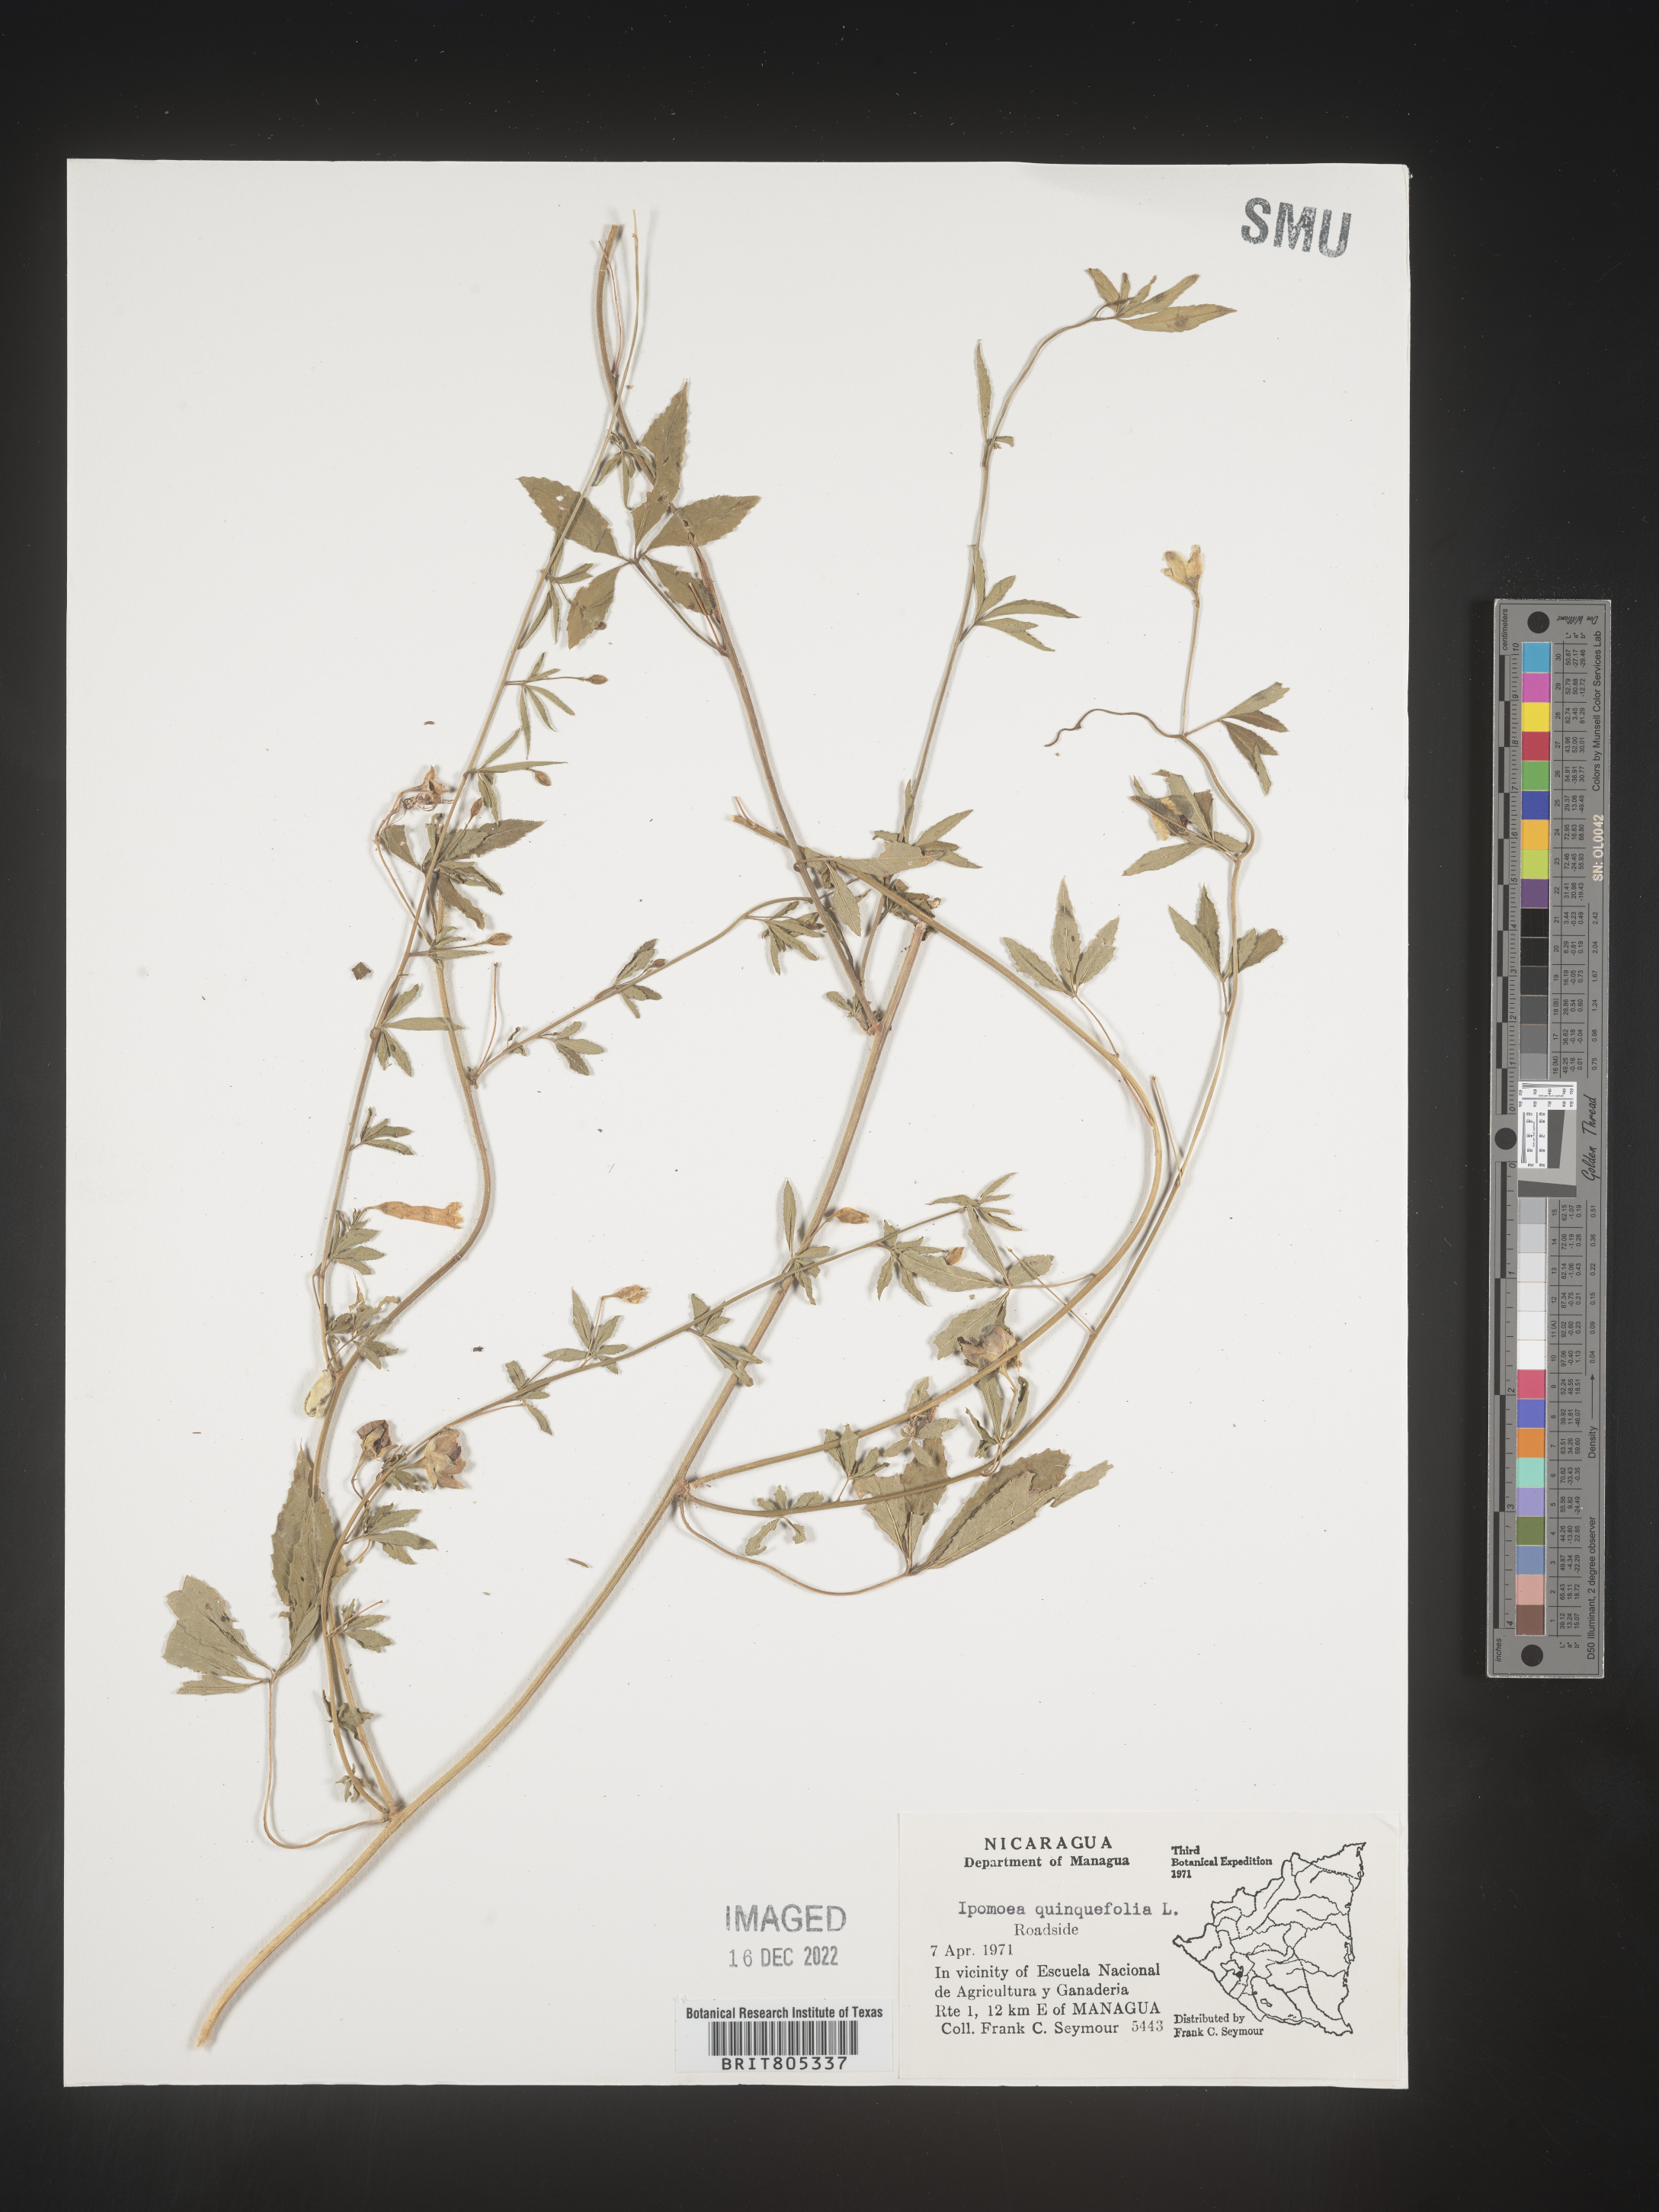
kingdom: Plantae
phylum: Tracheophyta
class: Magnoliopsida
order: Solanales
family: Convolvulaceae
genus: Ipomoea
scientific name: Ipomoea
